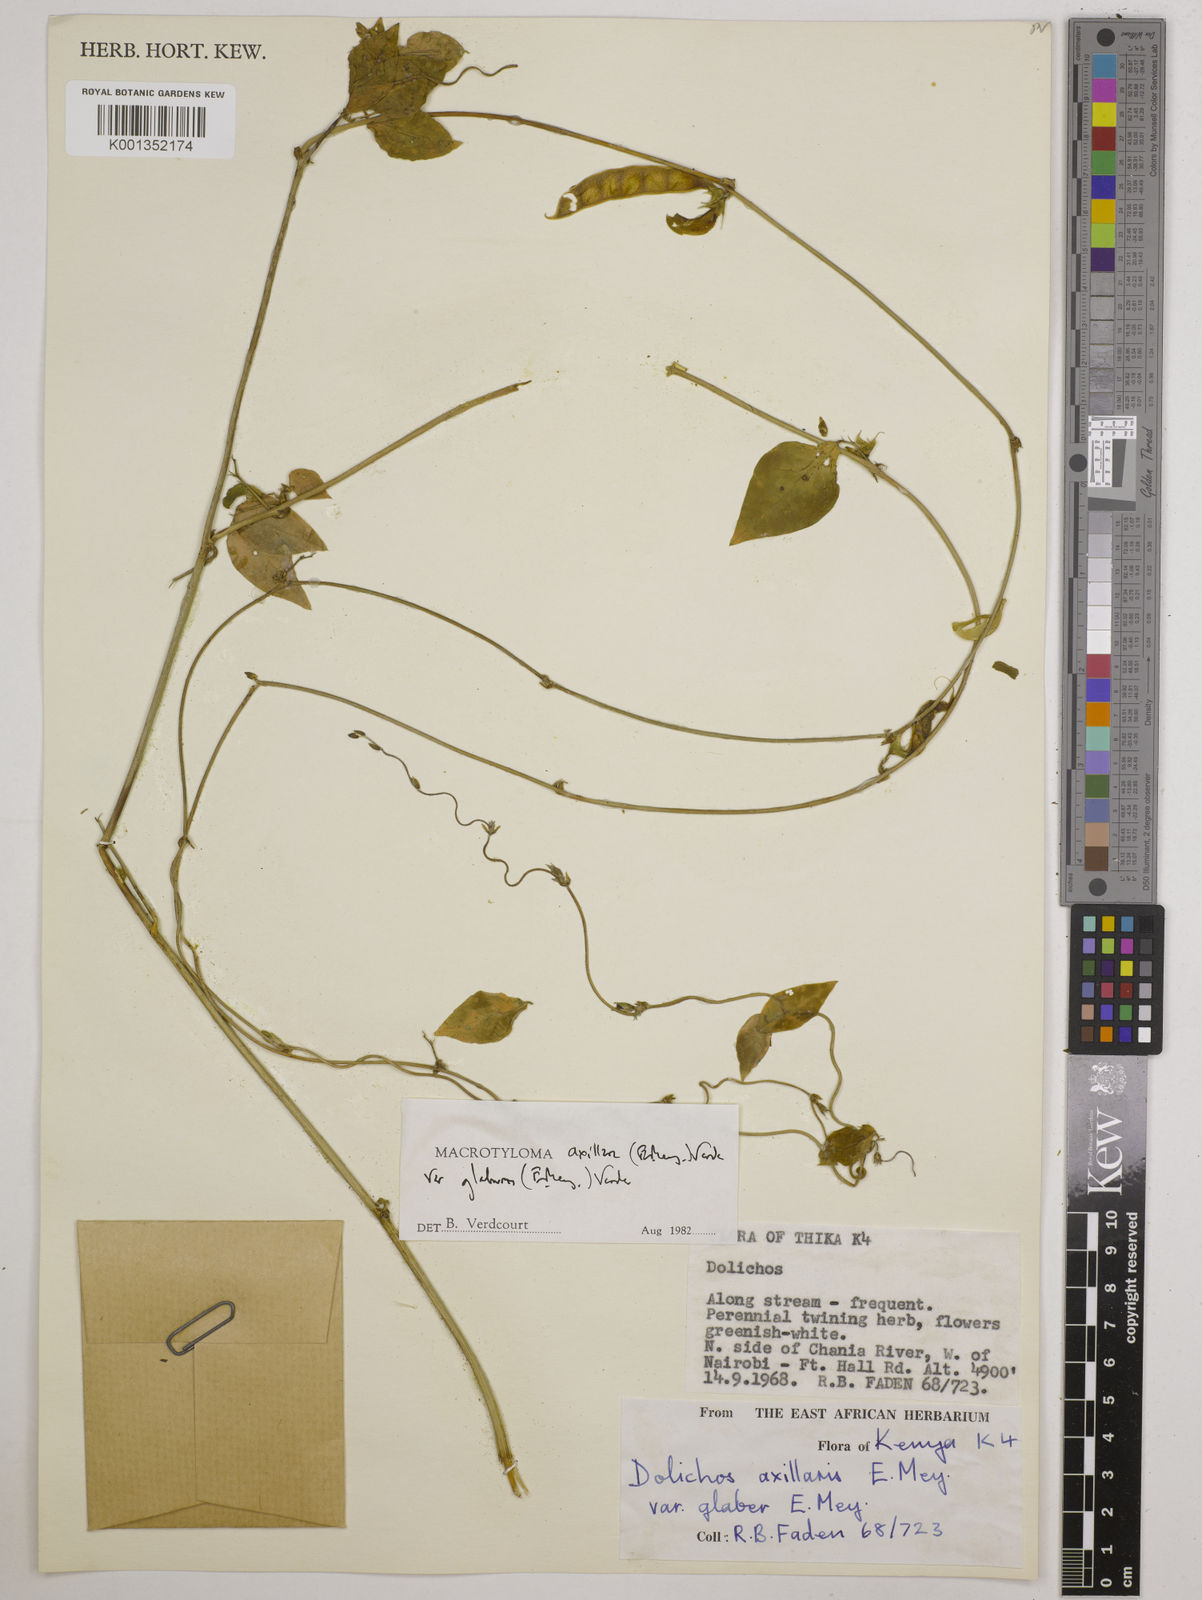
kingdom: Plantae
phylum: Tracheophyta
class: Magnoliopsida
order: Fabales
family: Fabaceae
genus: Macrotyloma
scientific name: Macrotyloma
